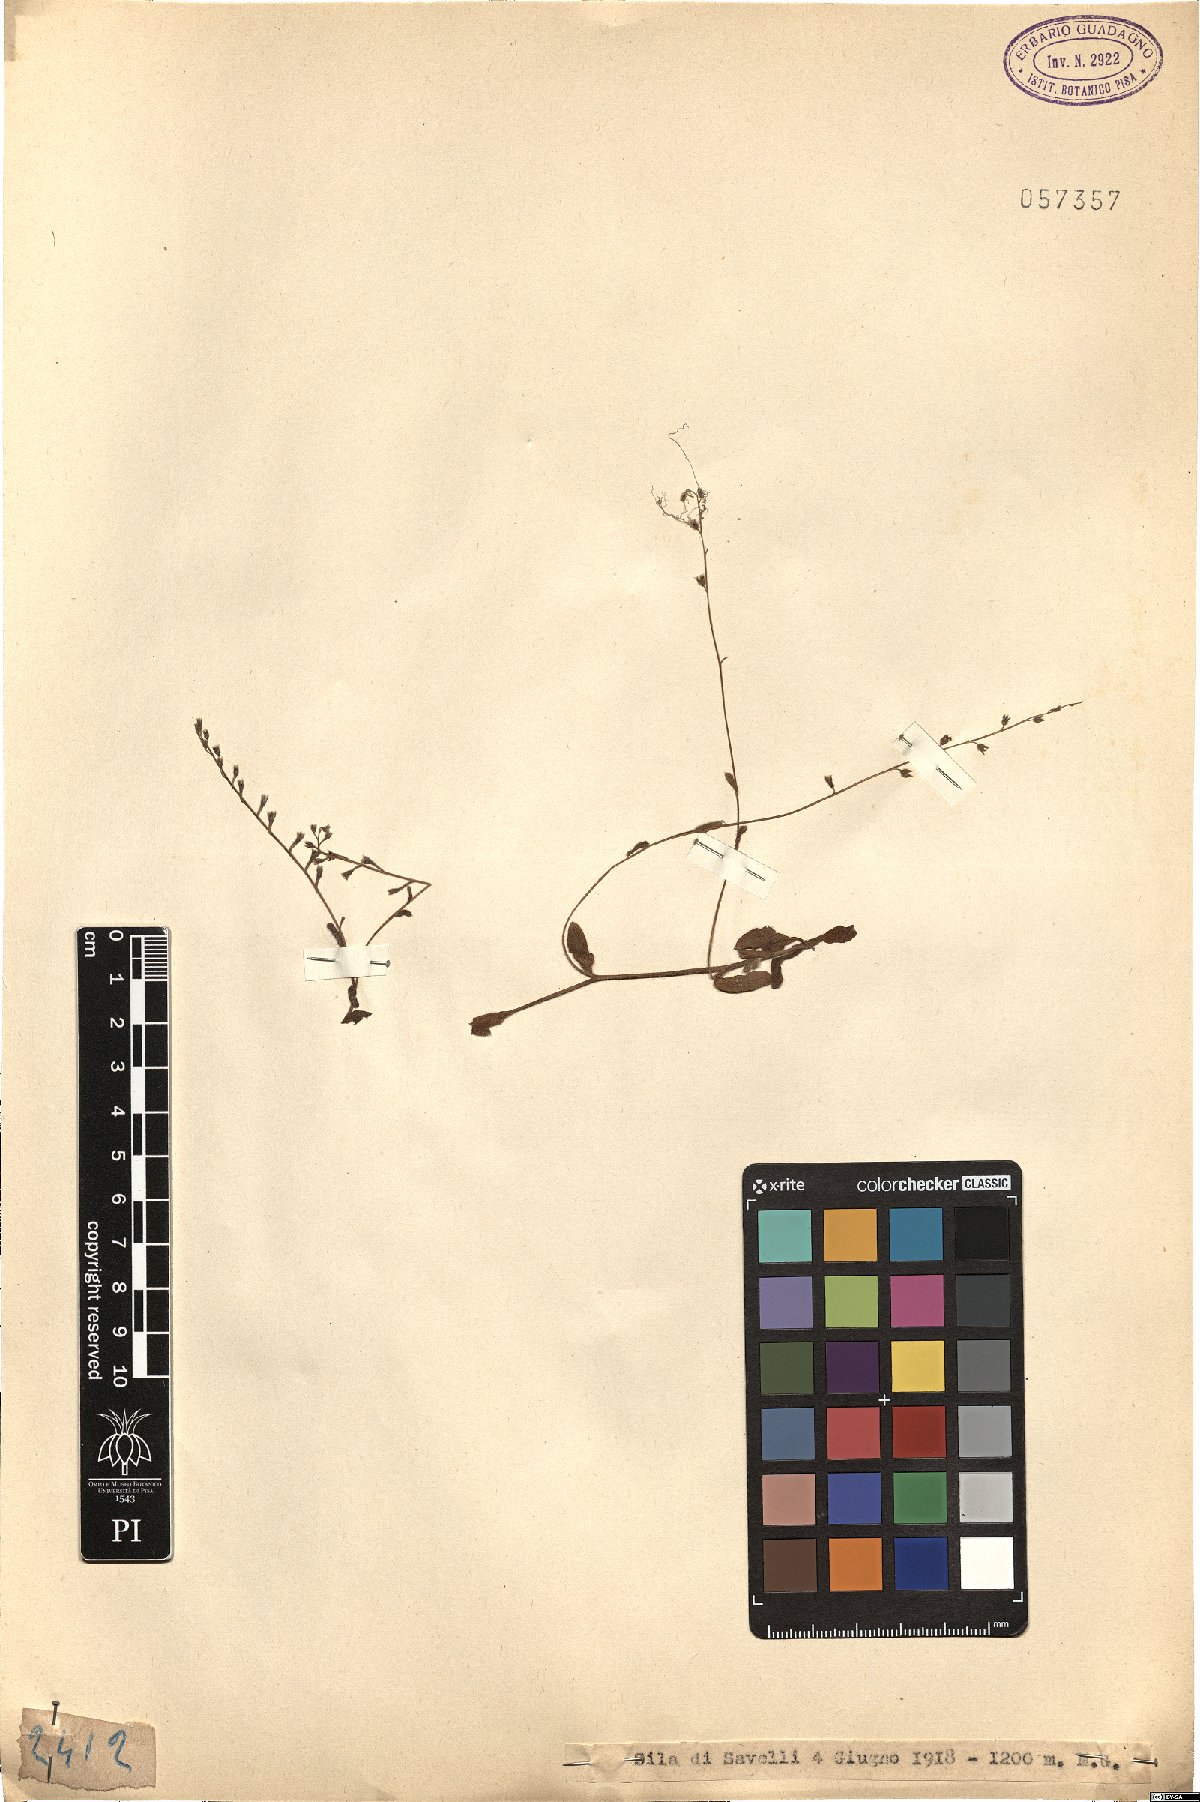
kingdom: Plantae
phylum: Tracheophyta
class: Magnoliopsida
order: Boraginales
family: Boraginaceae
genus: Myosotis
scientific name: Myosotis
